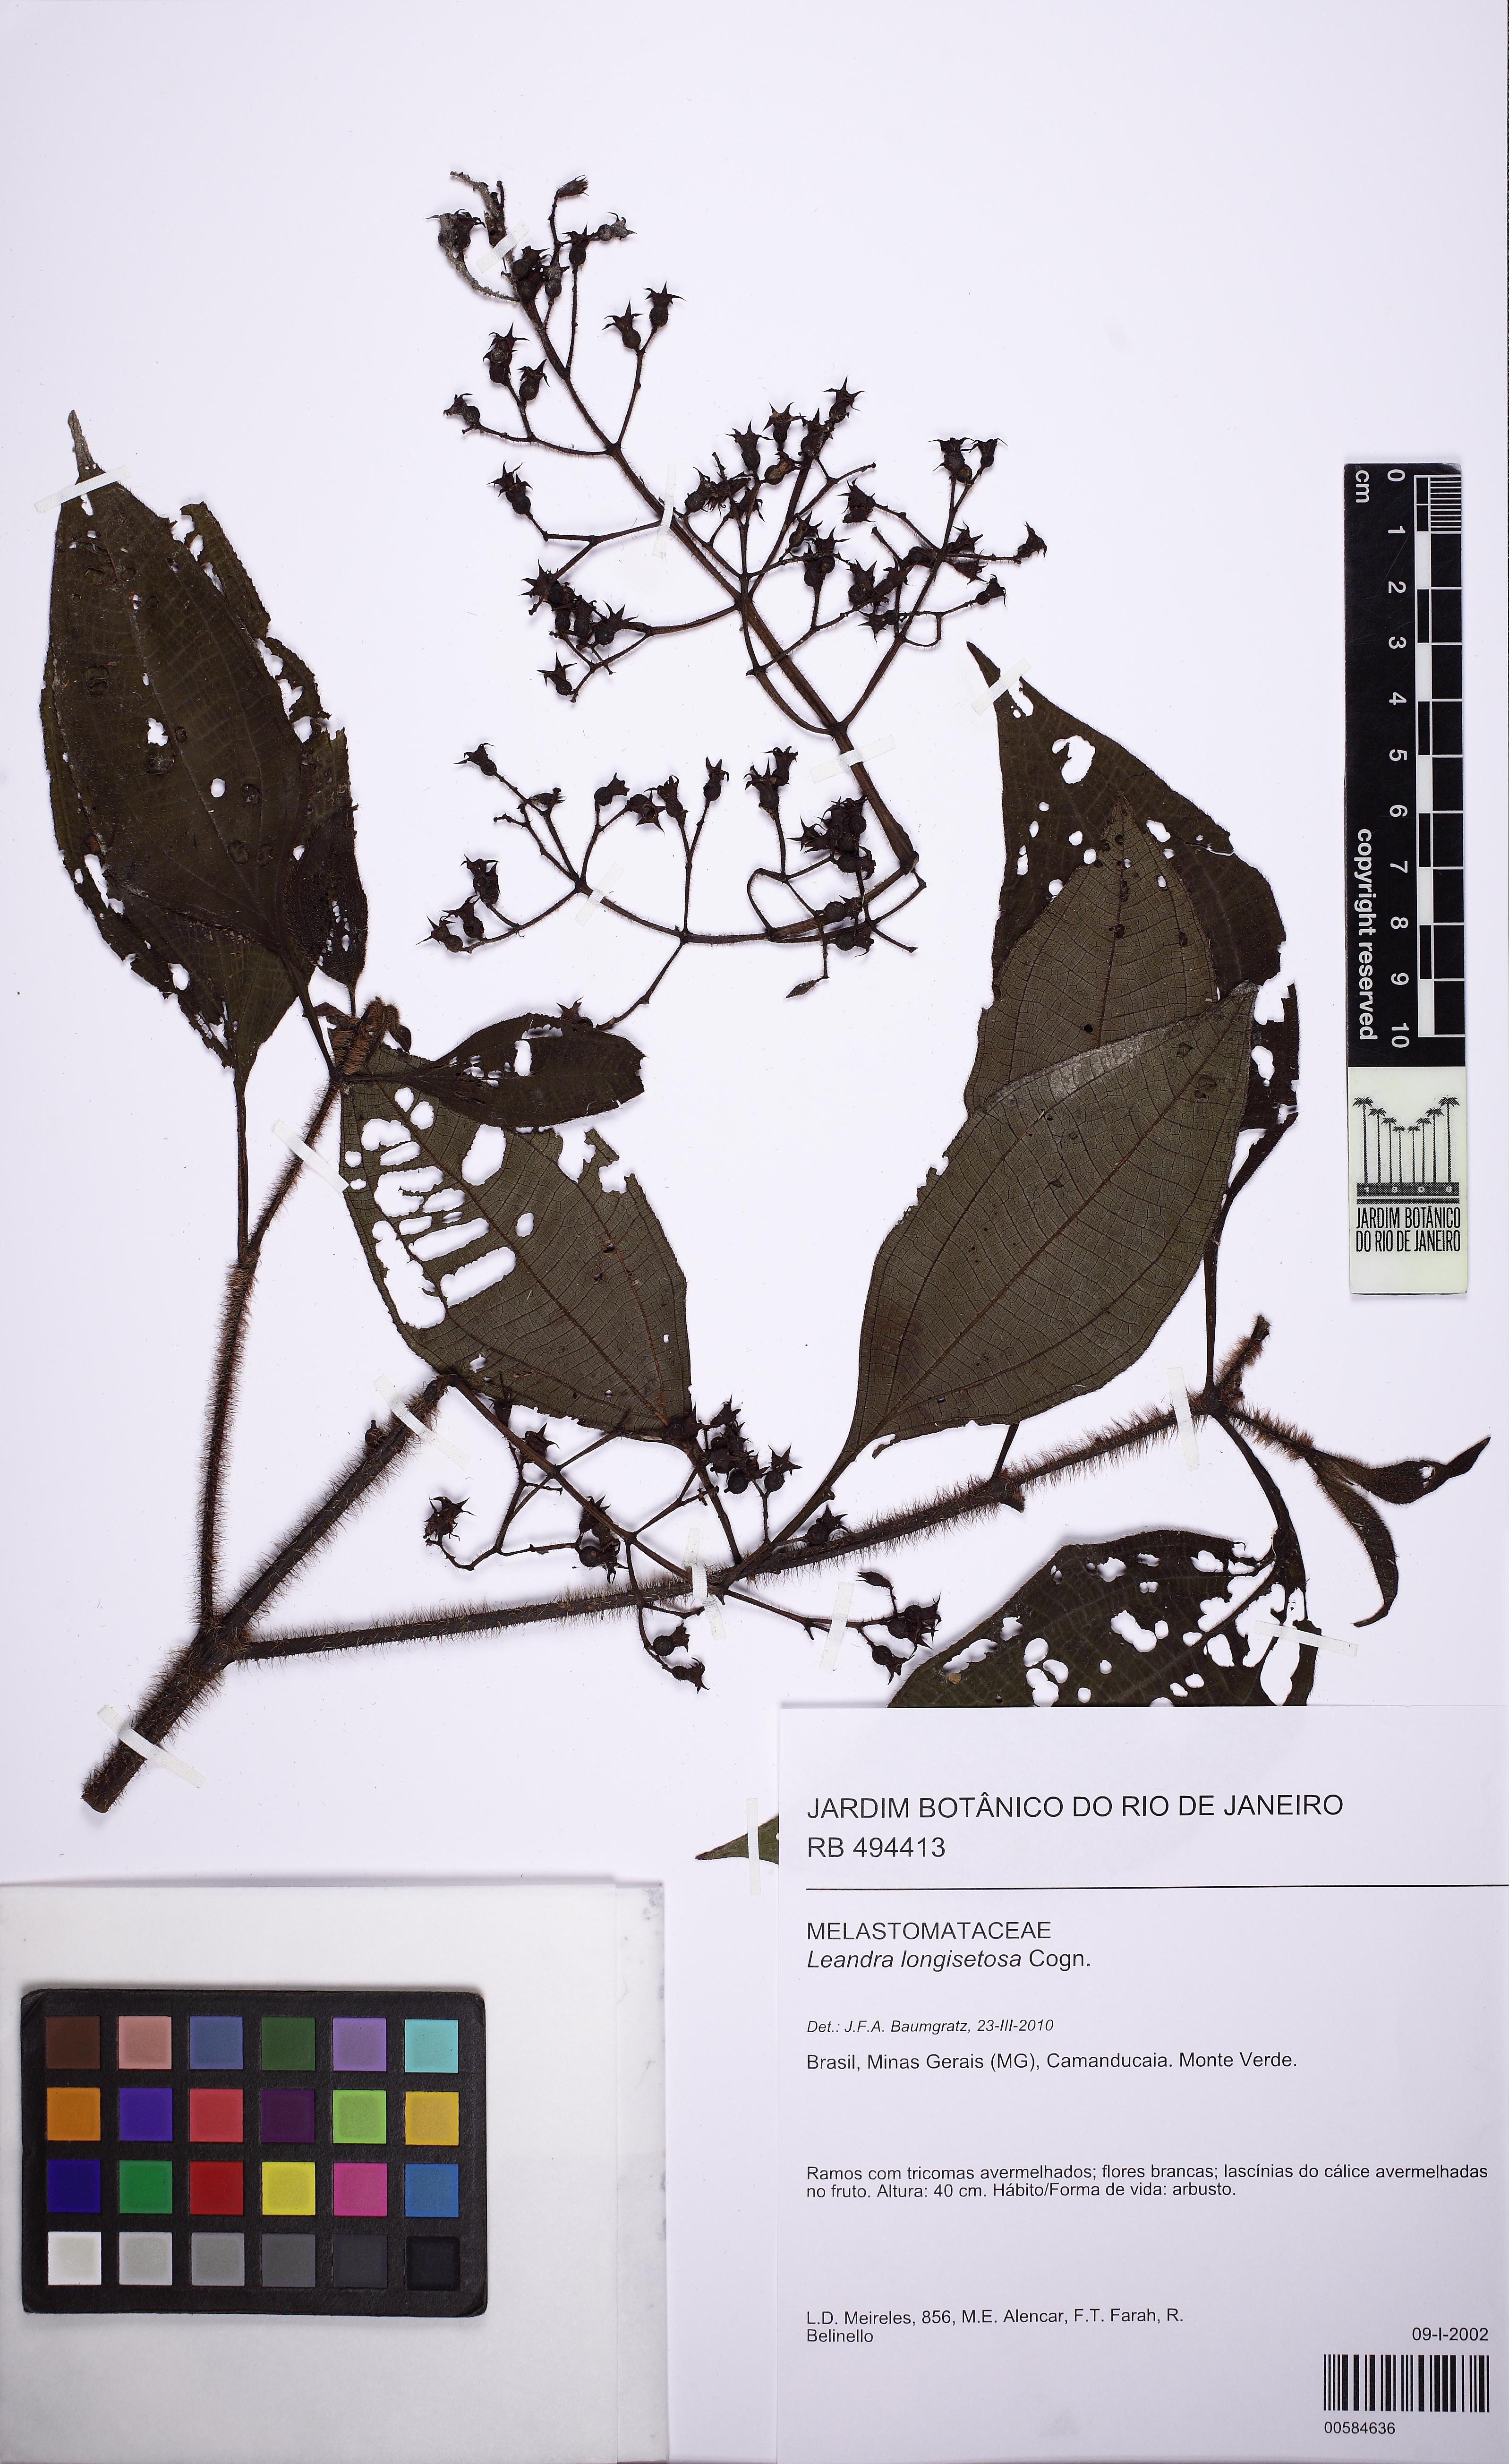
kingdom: Plantae
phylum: Tracheophyta
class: Magnoliopsida
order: Myrtales
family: Melastomataceae
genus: Miconia
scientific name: Miconia oocarpa
